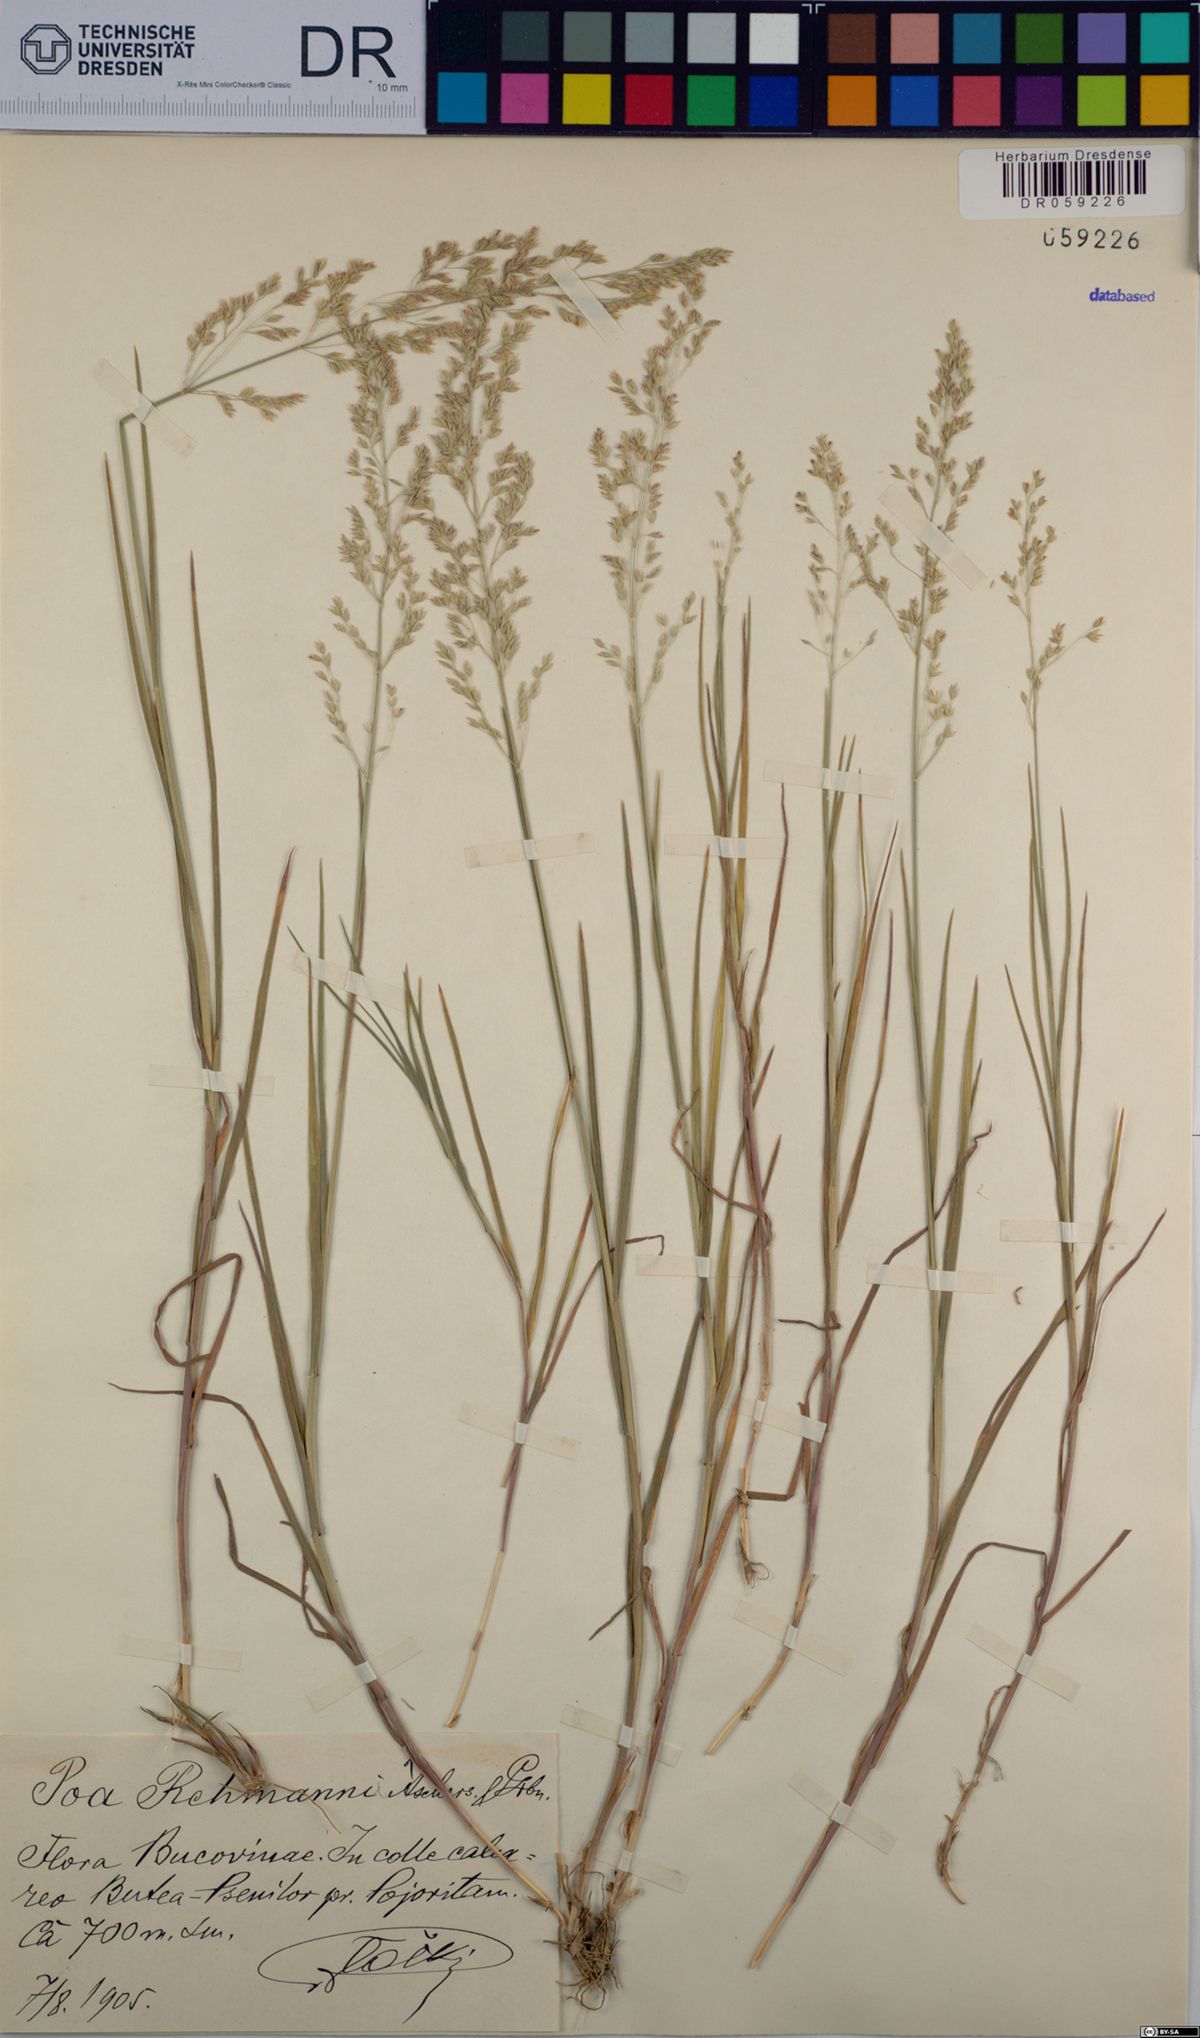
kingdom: Plantae
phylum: Tracheophyta
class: Liliopsida
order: Poales
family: Poaceae
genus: Poa
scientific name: Poa rehmannii
